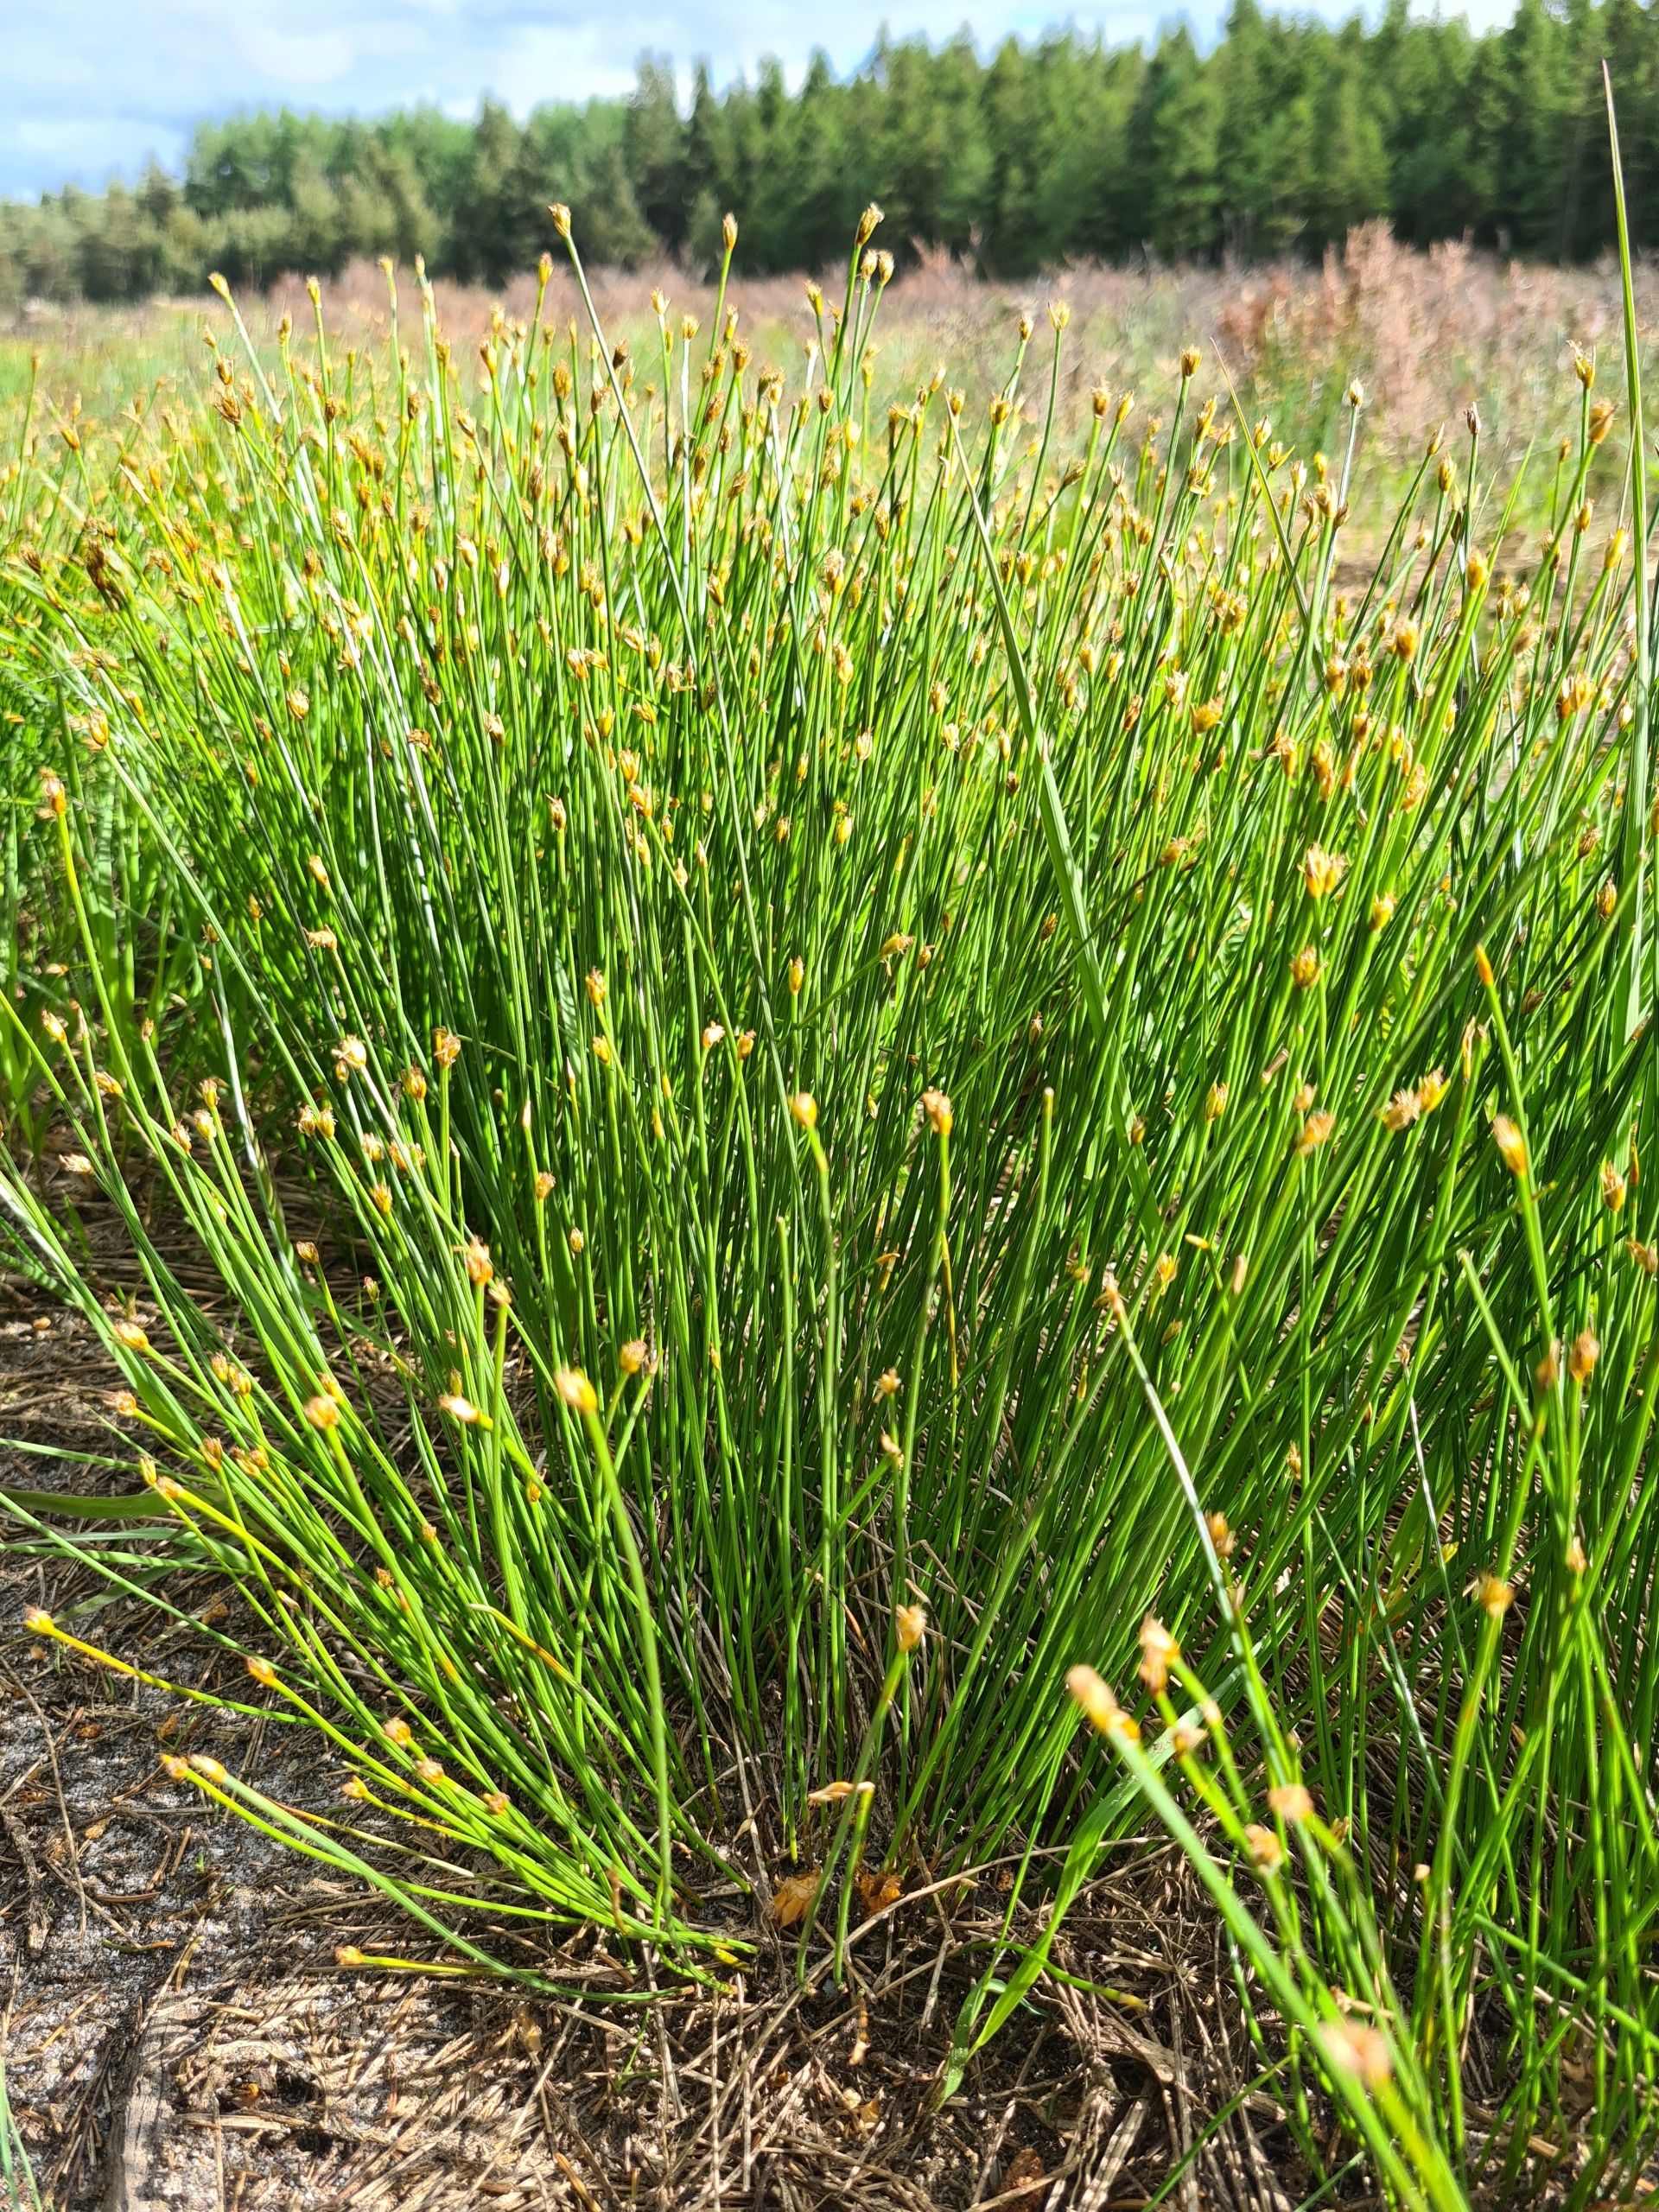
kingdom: Plantae
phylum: Tracheophyta
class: Liliopsida
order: Poales
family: Cyperaceae
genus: Trichophorum
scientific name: Trichophorum cespitosum
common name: Vestlig tuekogleaks
